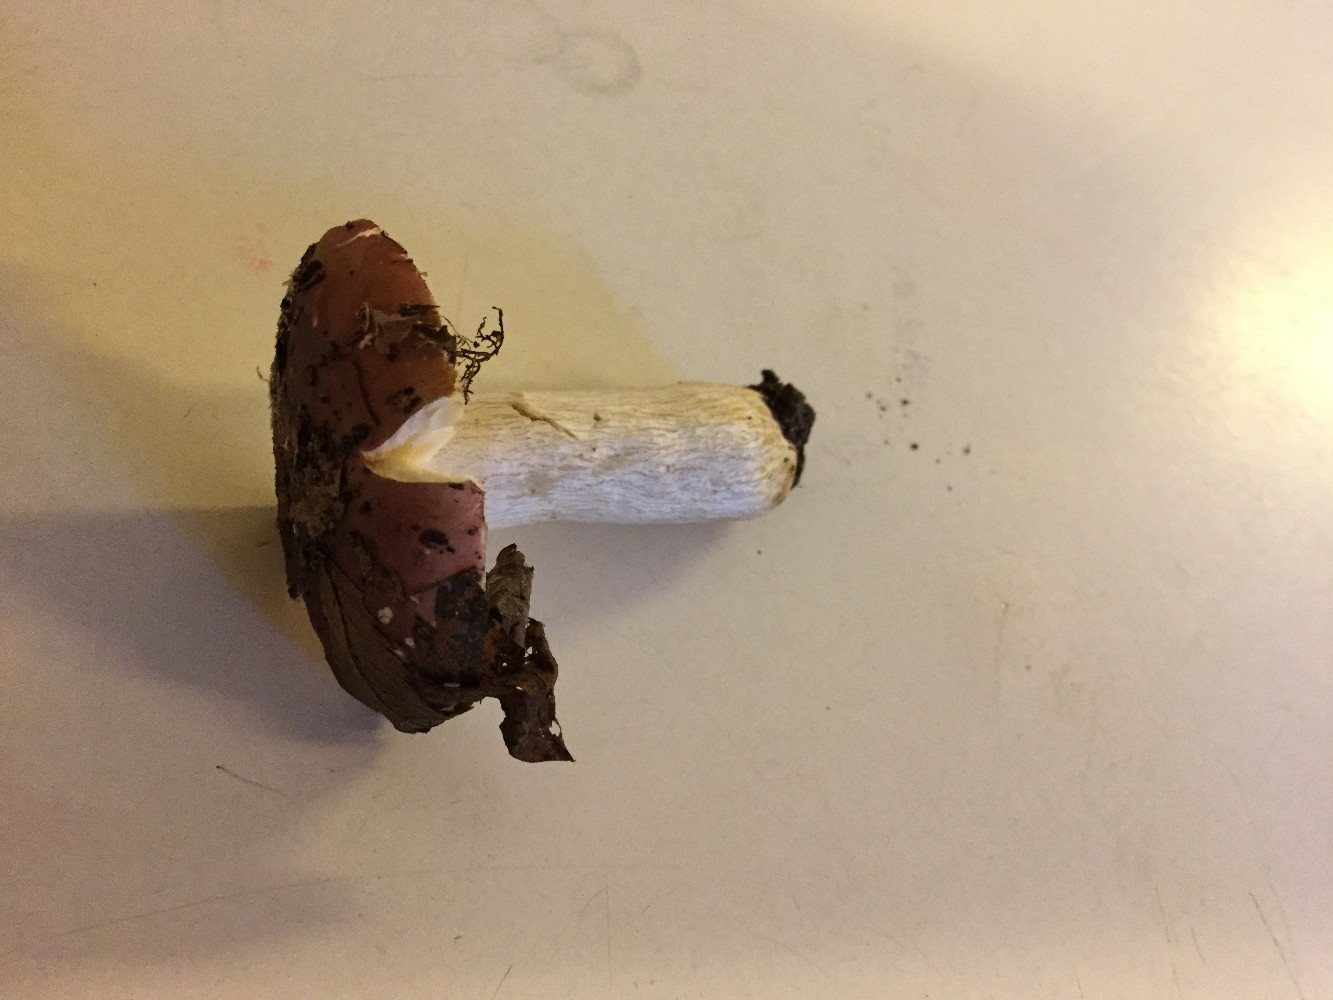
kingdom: Fungi
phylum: Basidiomycota
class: Agaricomycetes
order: Russulales
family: Russulaceae
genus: Russula
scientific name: Russula atropurpurea
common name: purpurbroget skørhat
